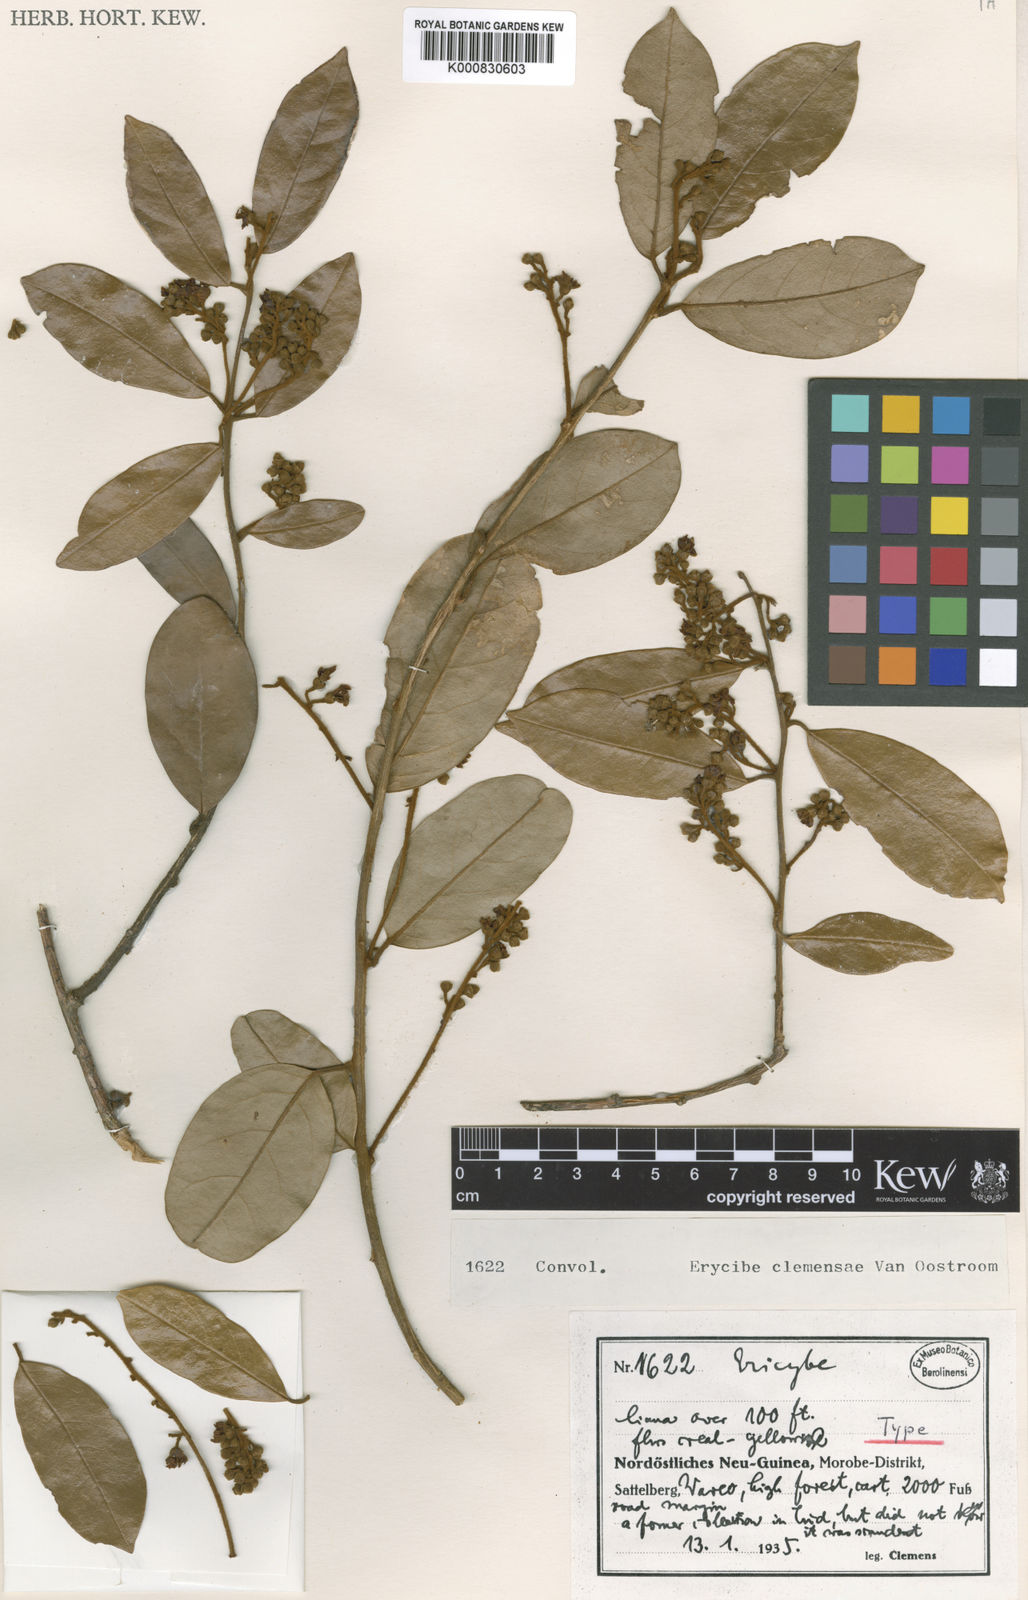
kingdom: Plantae
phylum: Tracheophyta
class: Magnoliopsida
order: Solanales
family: Convolvulaceae
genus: Erycibe
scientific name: Erycibe clemensiae
